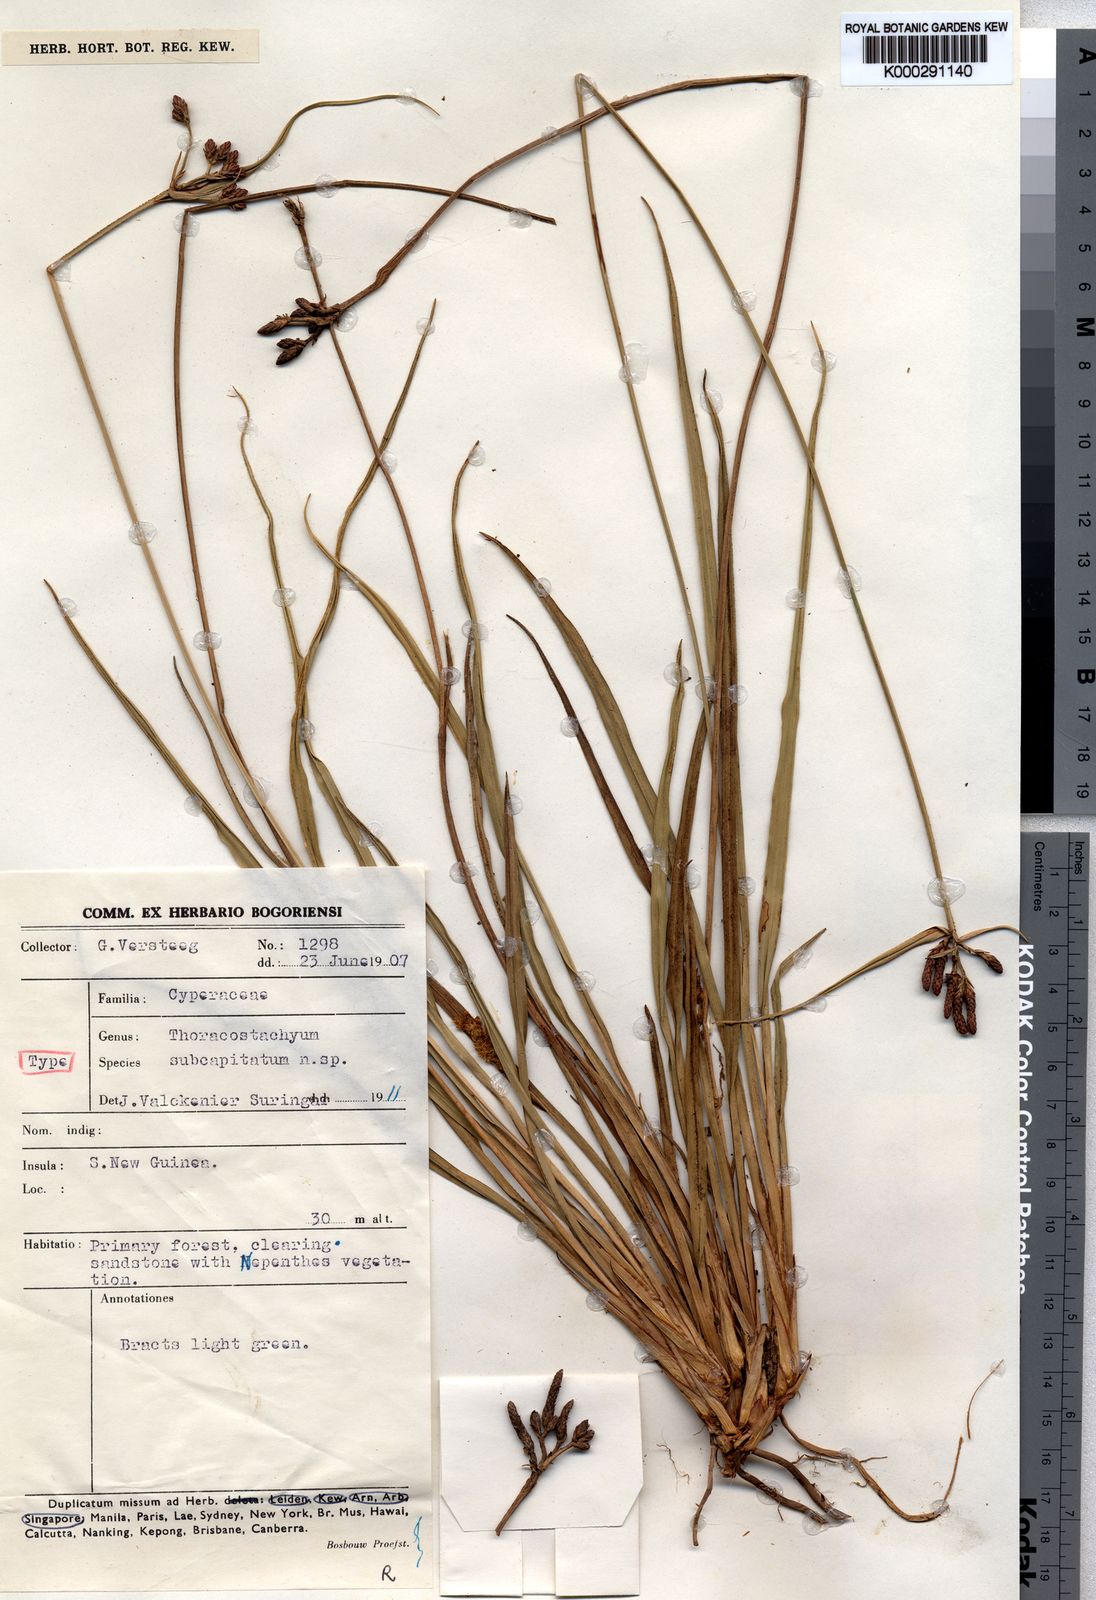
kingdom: Plantae
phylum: Tracheophyta
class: Liliopsida
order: Poales
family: Cyperaceae
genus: Mapania
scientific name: Mapania
